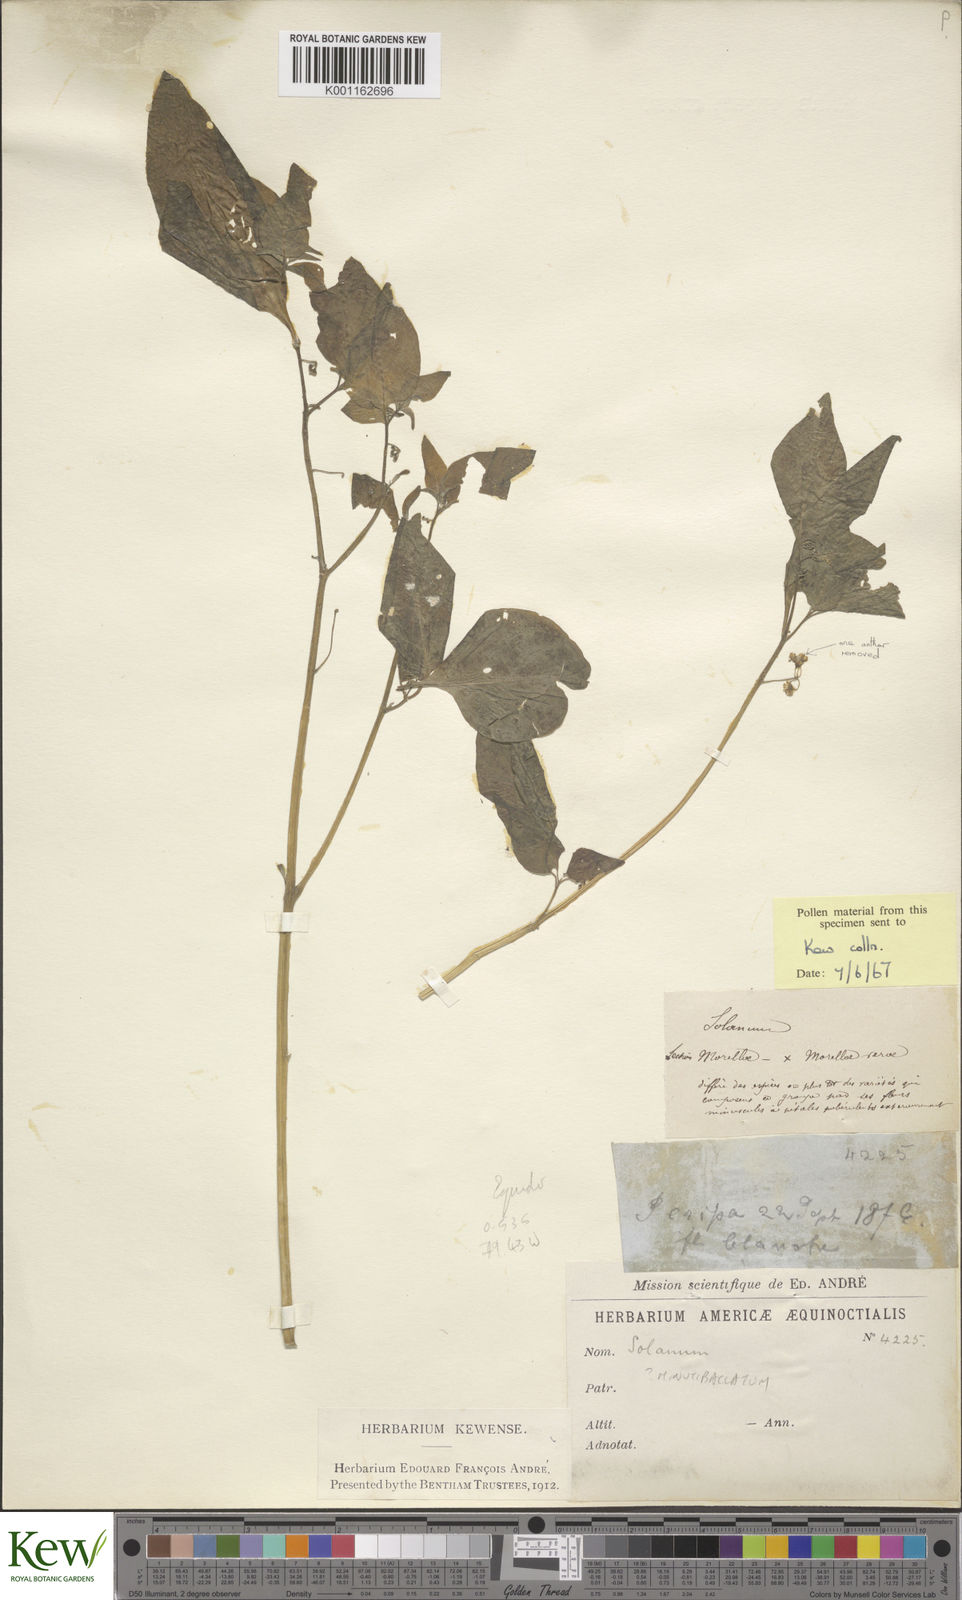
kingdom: Plantae
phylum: Tracheophyta
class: Magnoliopsida
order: Solanales
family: Solanaceae
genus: Solanum
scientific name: Solanum americanum
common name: American black nightshade
